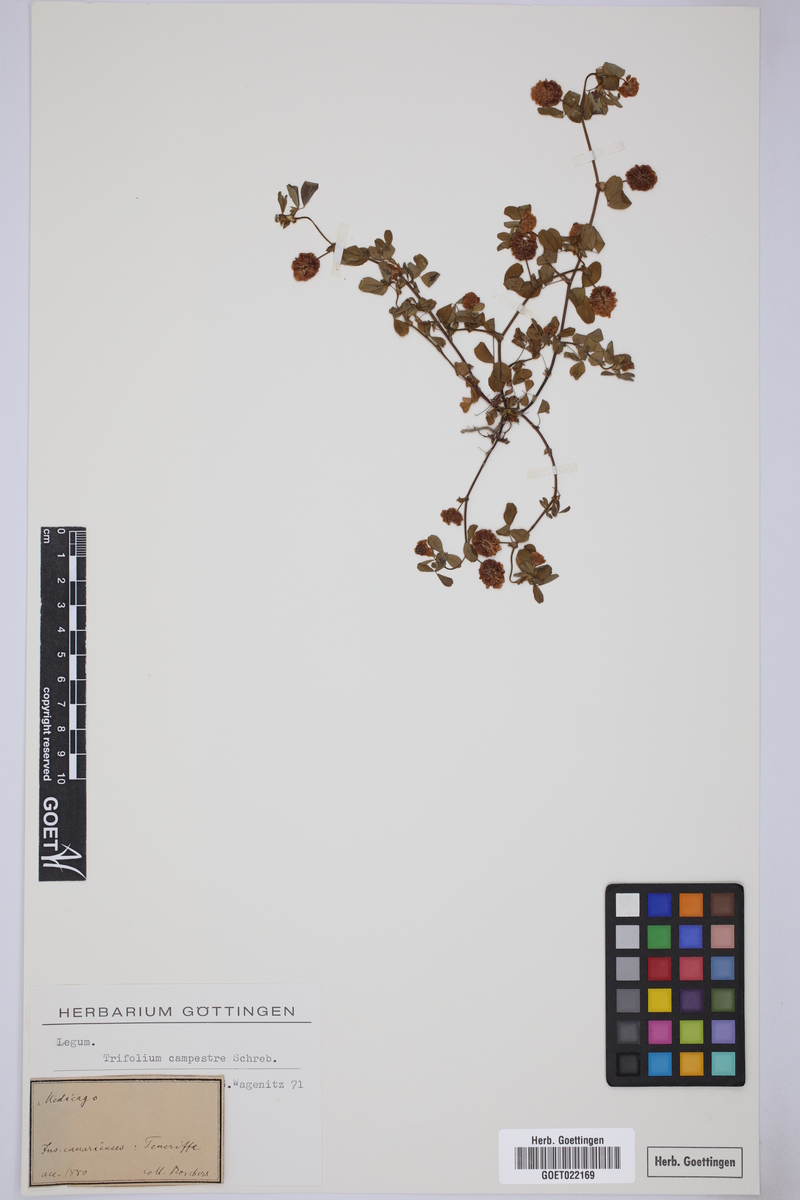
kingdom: Plantae
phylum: Tracheophyta
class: Magnoliopsida
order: Fabales
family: Fabaceae
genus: Trifolium
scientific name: Trifolium campestre
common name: Field clover
